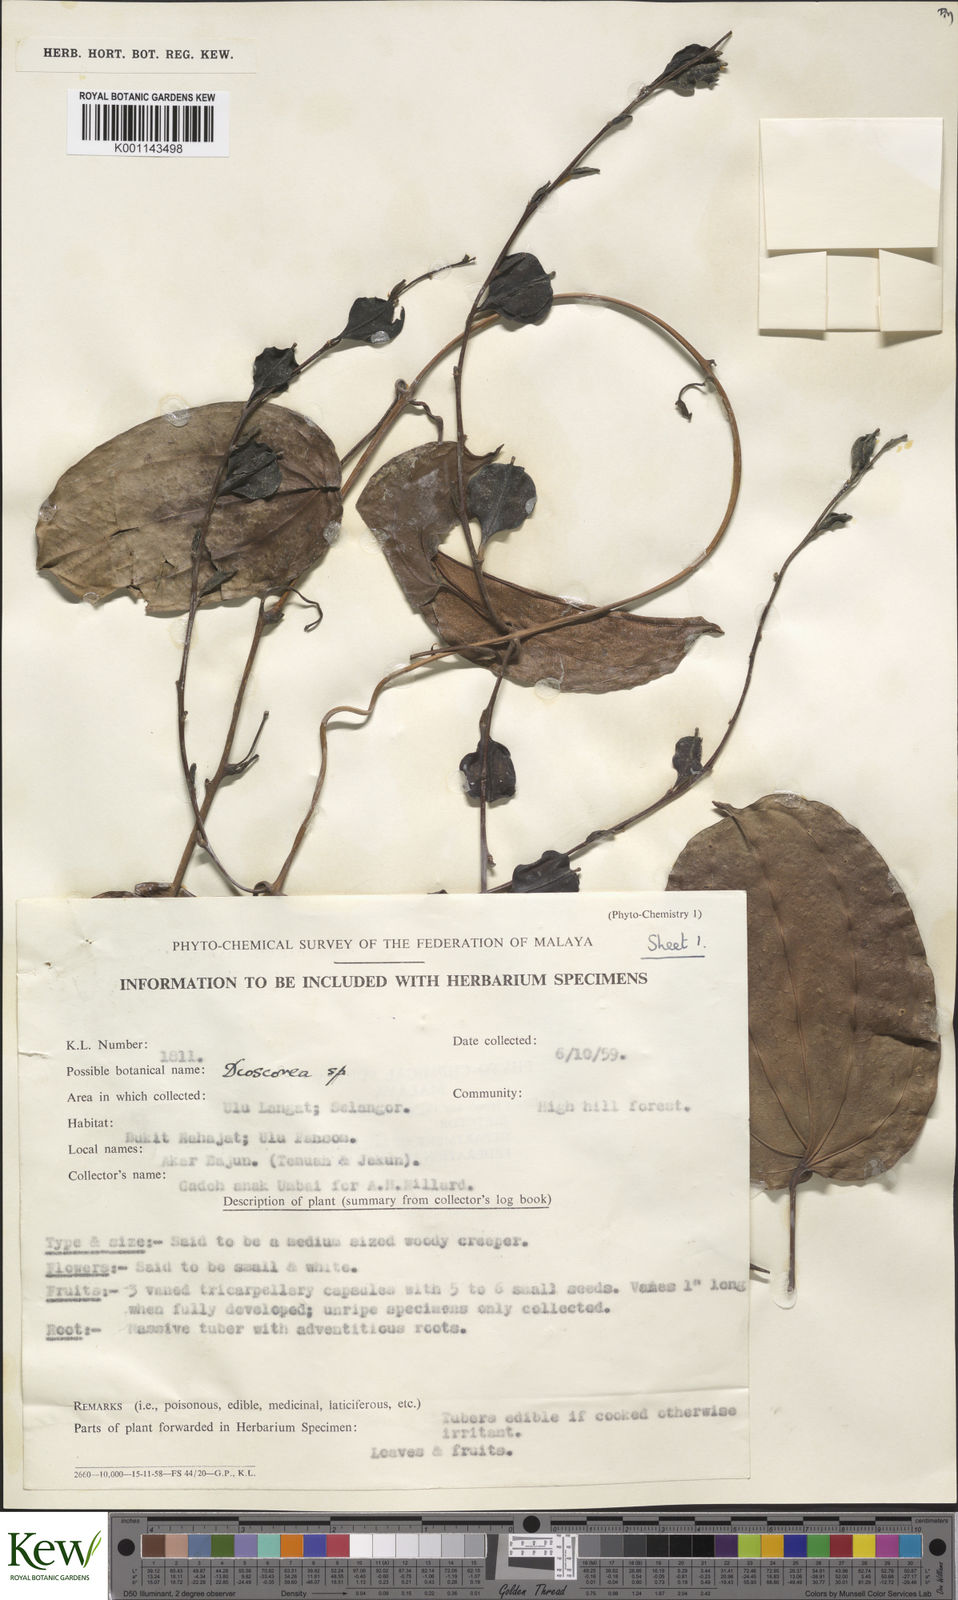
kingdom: Plantae
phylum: Tracheophyta
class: Liliopsida
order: Dioscoreales
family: Dioscoreaceae
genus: Dioscorea
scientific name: Dioscorea
